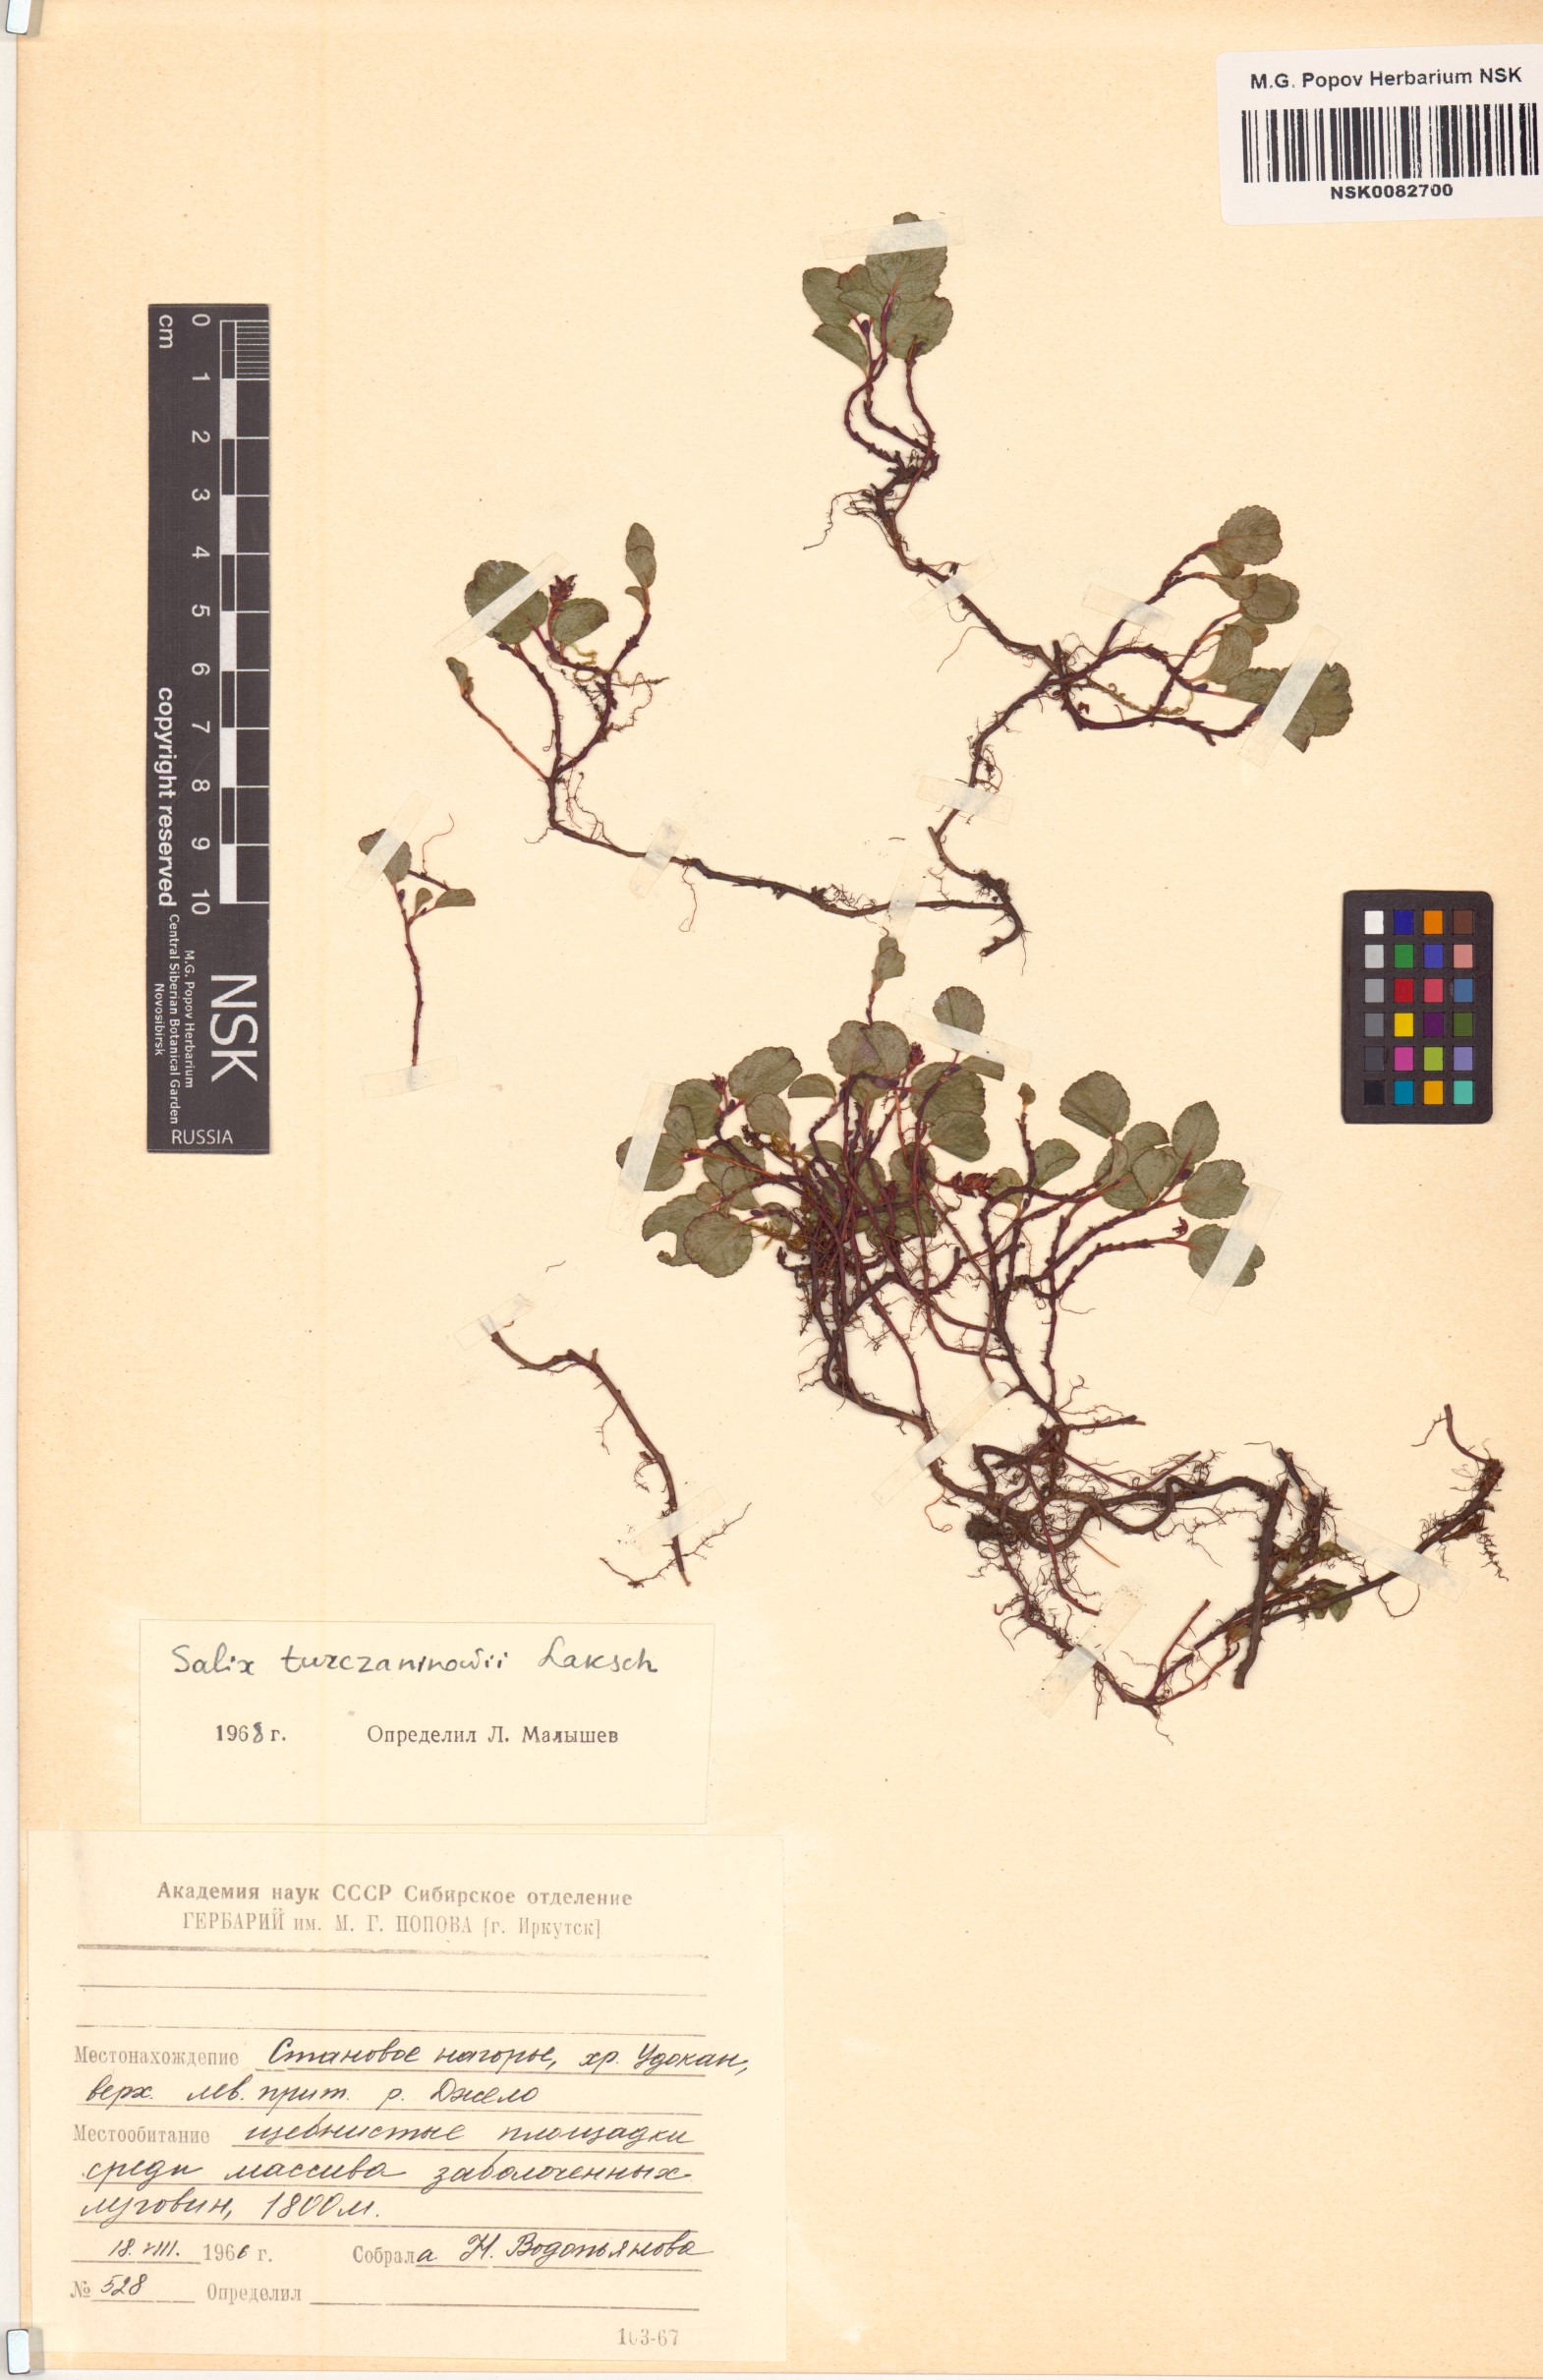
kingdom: Plantae
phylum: Tracheophyta
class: Magnoliopsida
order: Malpighiales
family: Salicaceae
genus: Salix
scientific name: Salix turczaninowii
